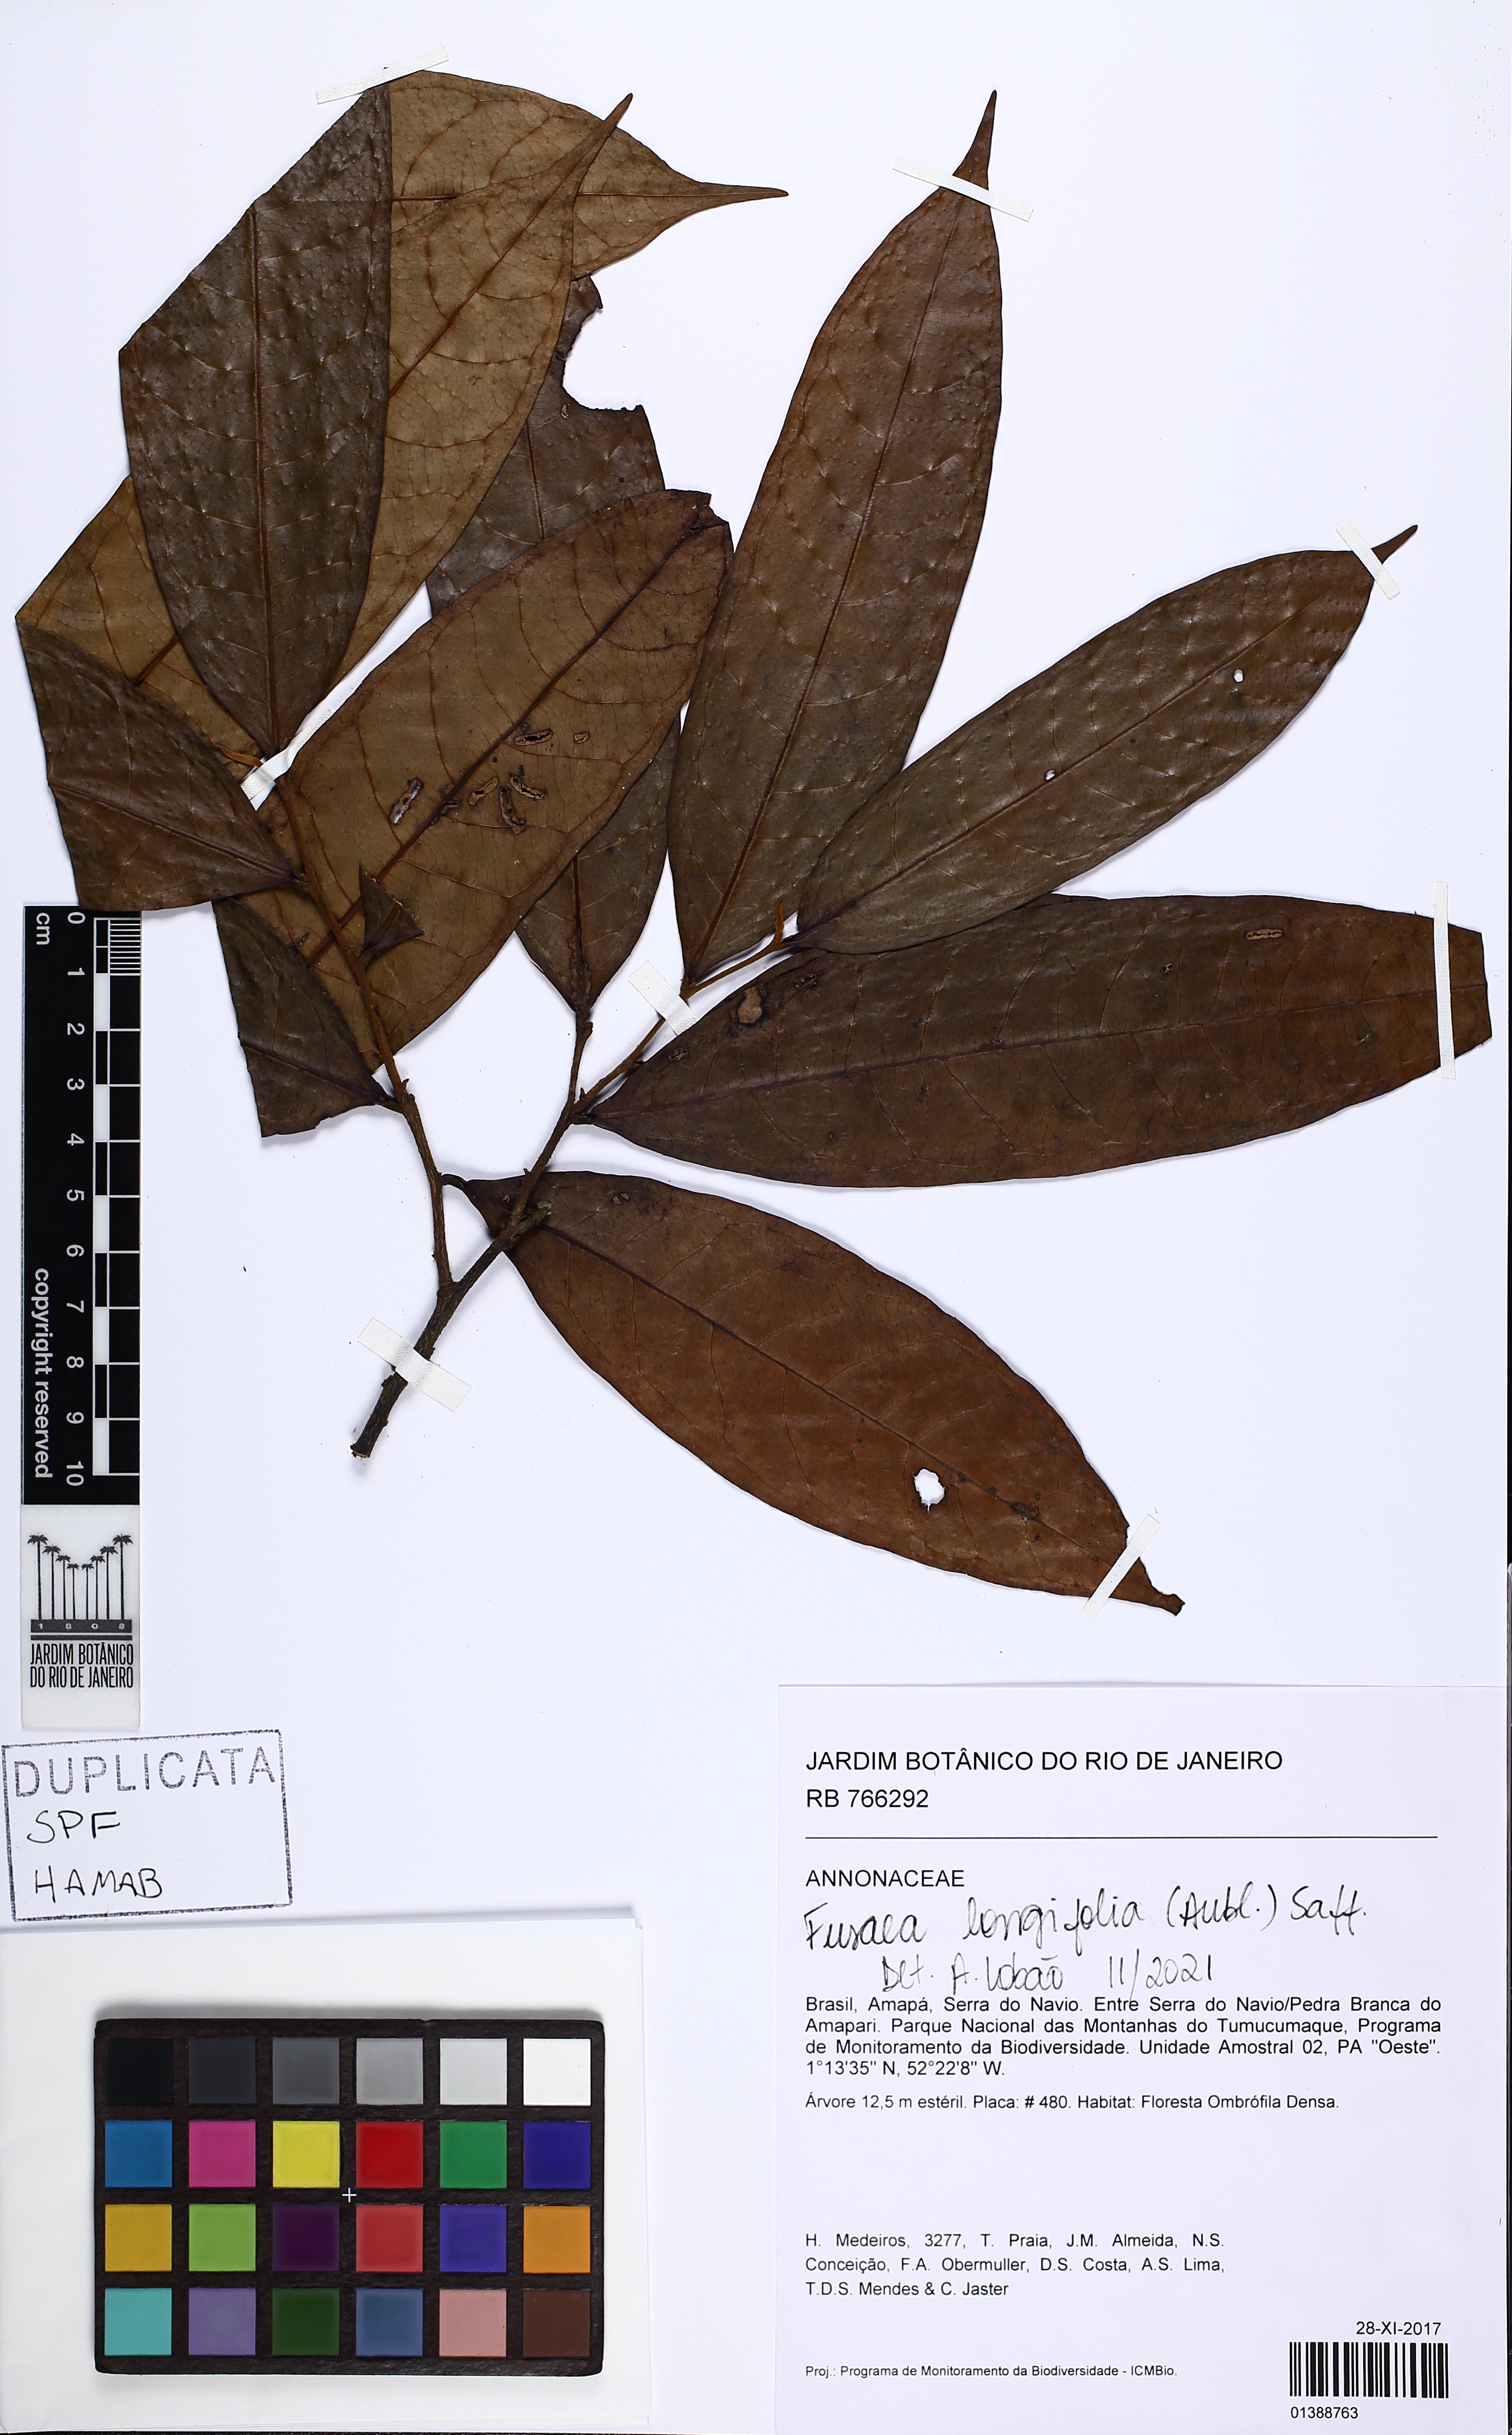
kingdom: Plantae
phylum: Tracheophyta
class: Magnoliopsida
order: Magnoliales
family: Annonaceae
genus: Fusaea
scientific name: Fusaea longifolia
